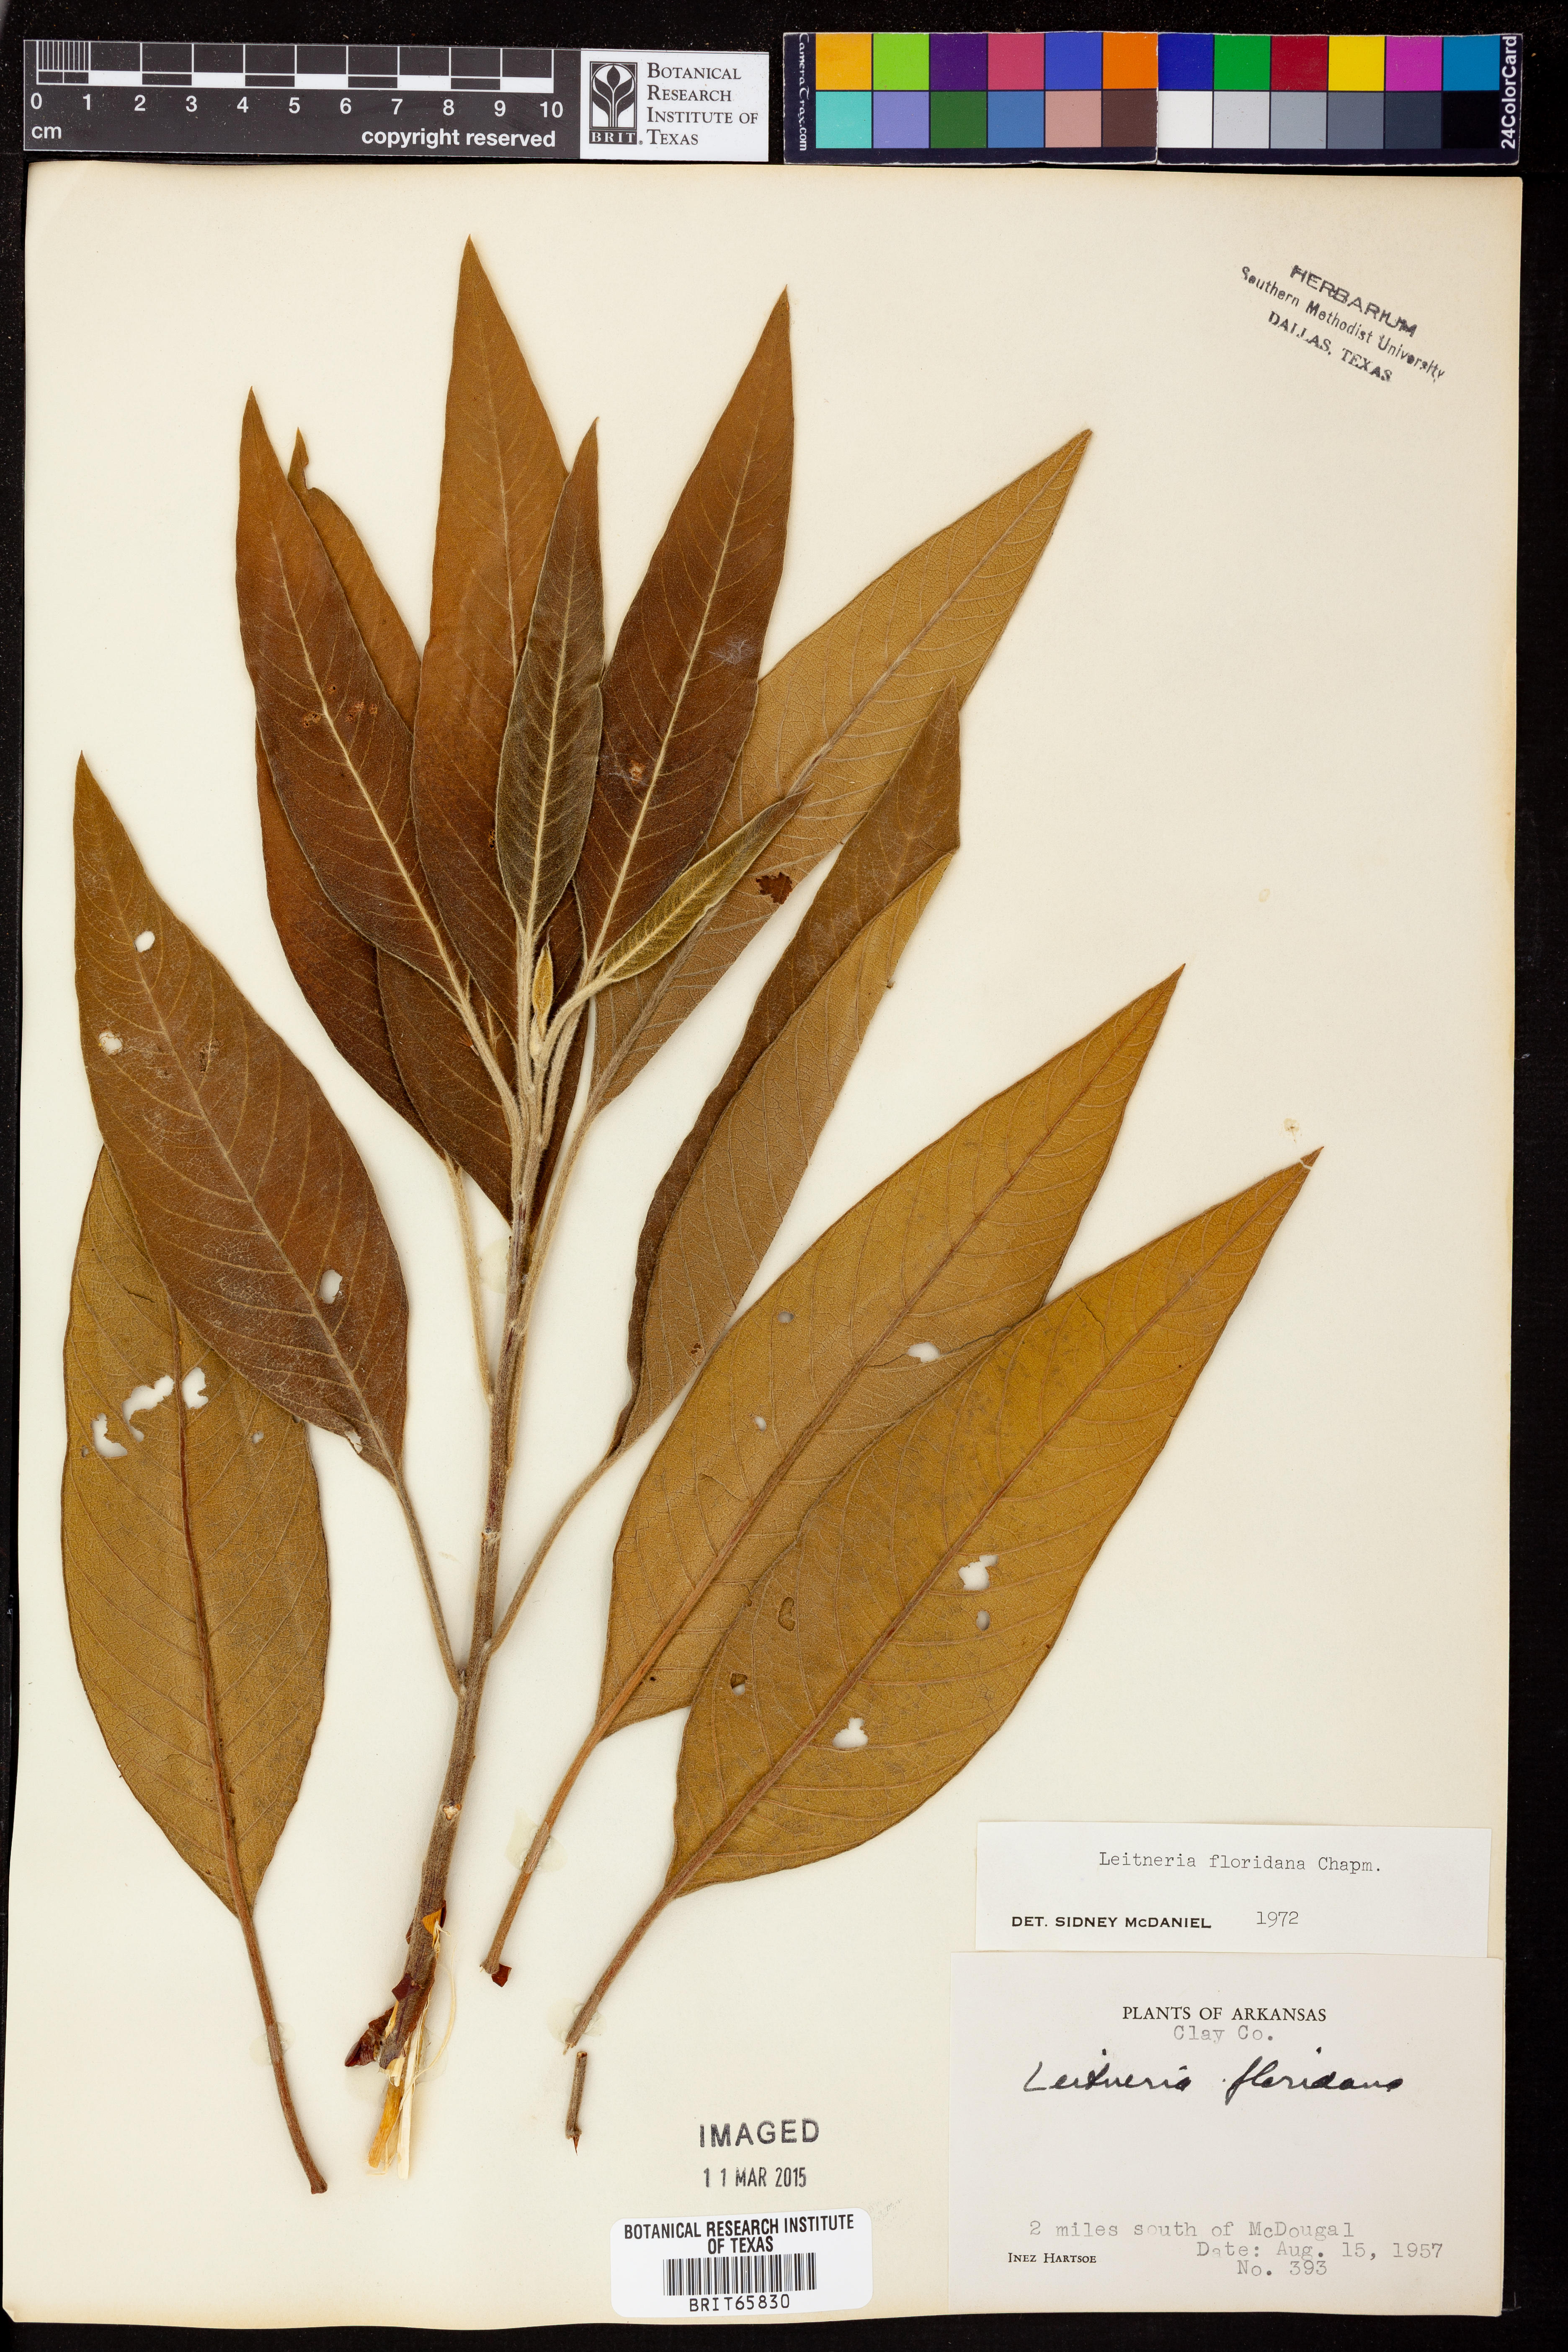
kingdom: Plantae
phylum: Tracheophyta
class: Magnoliopsida
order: Sapindales
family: Simaroubaceae
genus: Leitneria
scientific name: Leitneria floridana
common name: Corkwood
